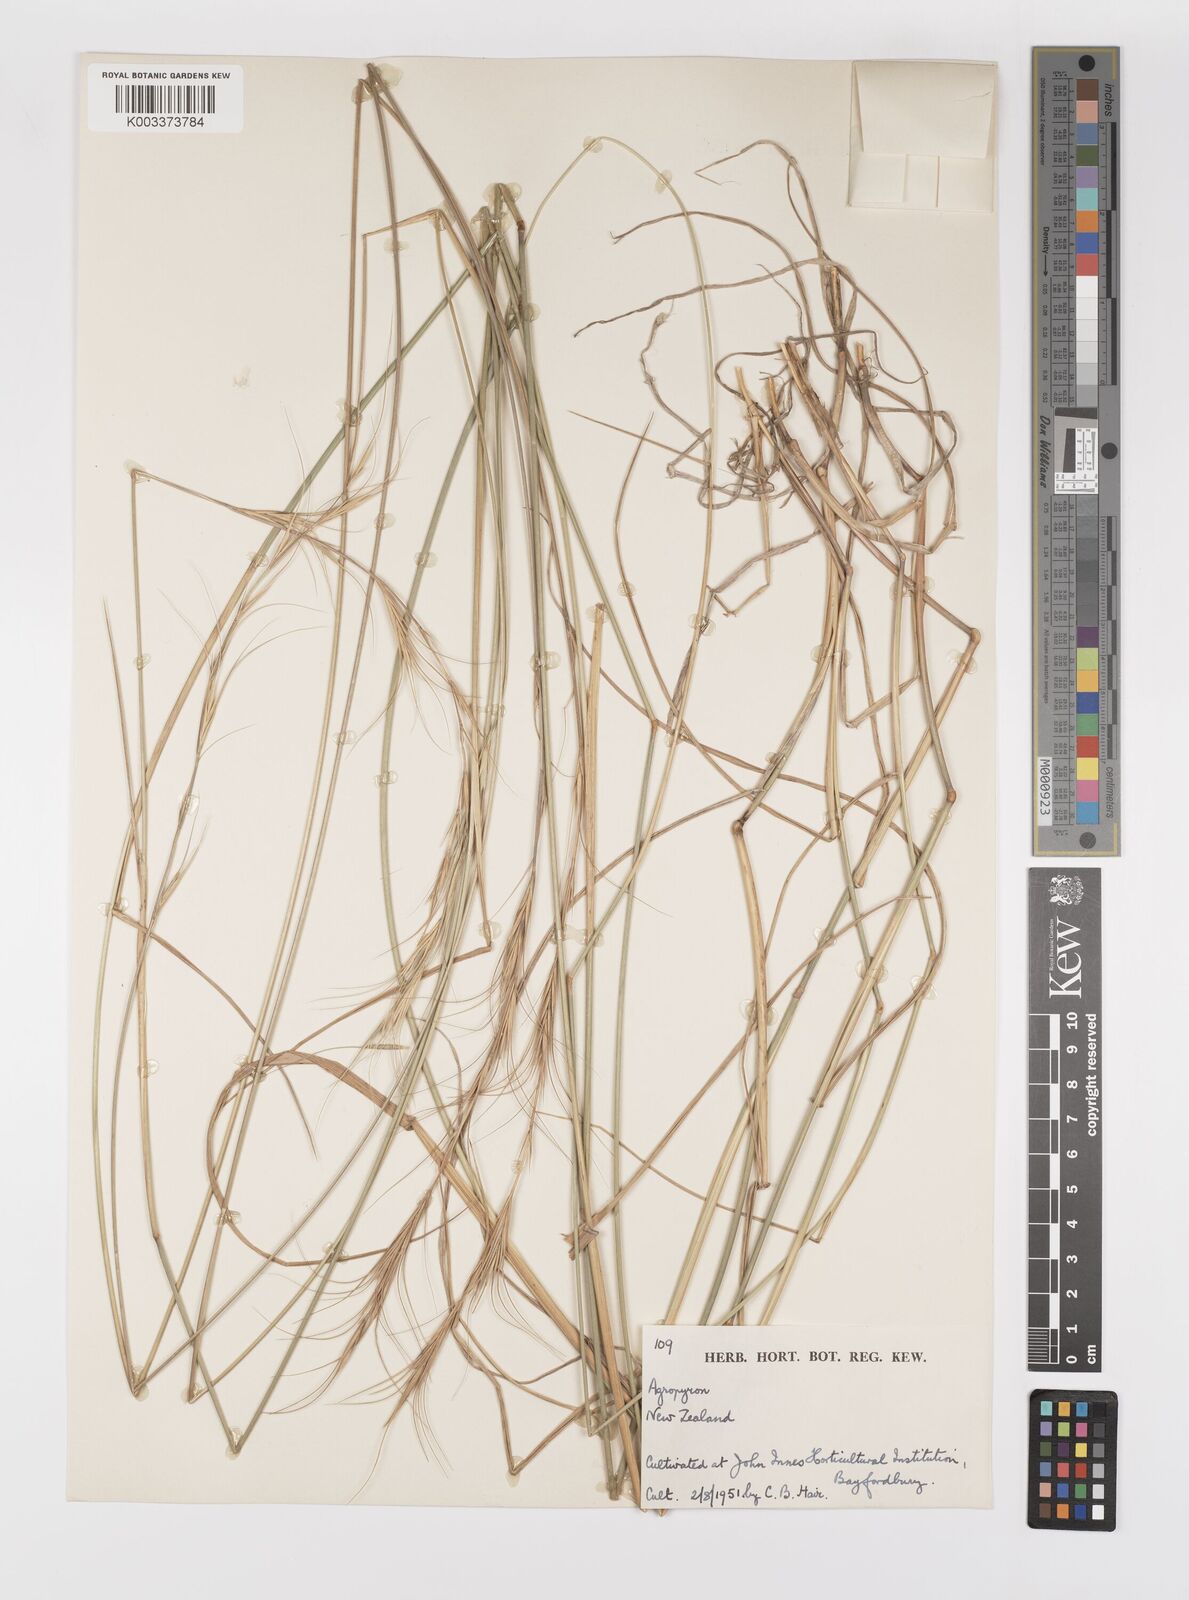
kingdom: Plantae
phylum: Tracheophyta
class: Liliopsida
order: Poales
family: Poaceae
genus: Elymus
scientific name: Elymus
